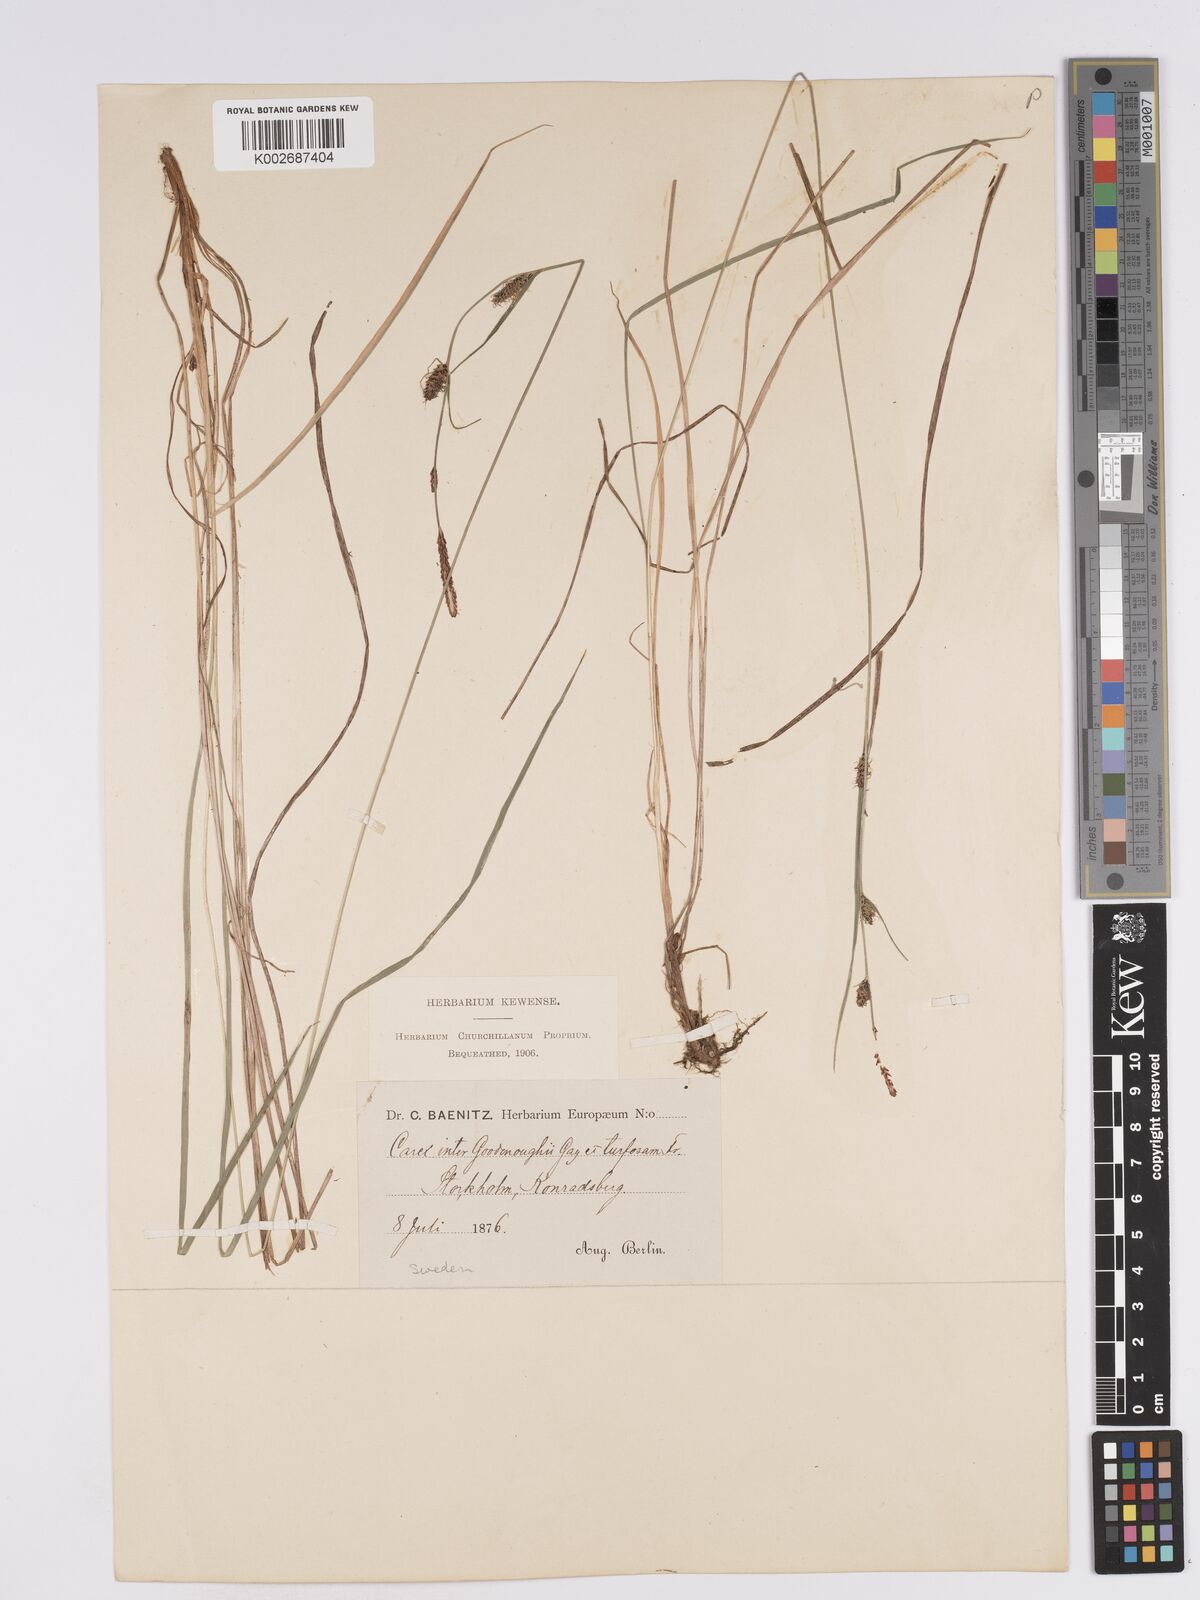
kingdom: Plantae
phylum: Tracheophyta
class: Liliopsida
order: Poales
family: Cyperaceae
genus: Carex
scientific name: Carex nigra
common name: Common sedge
